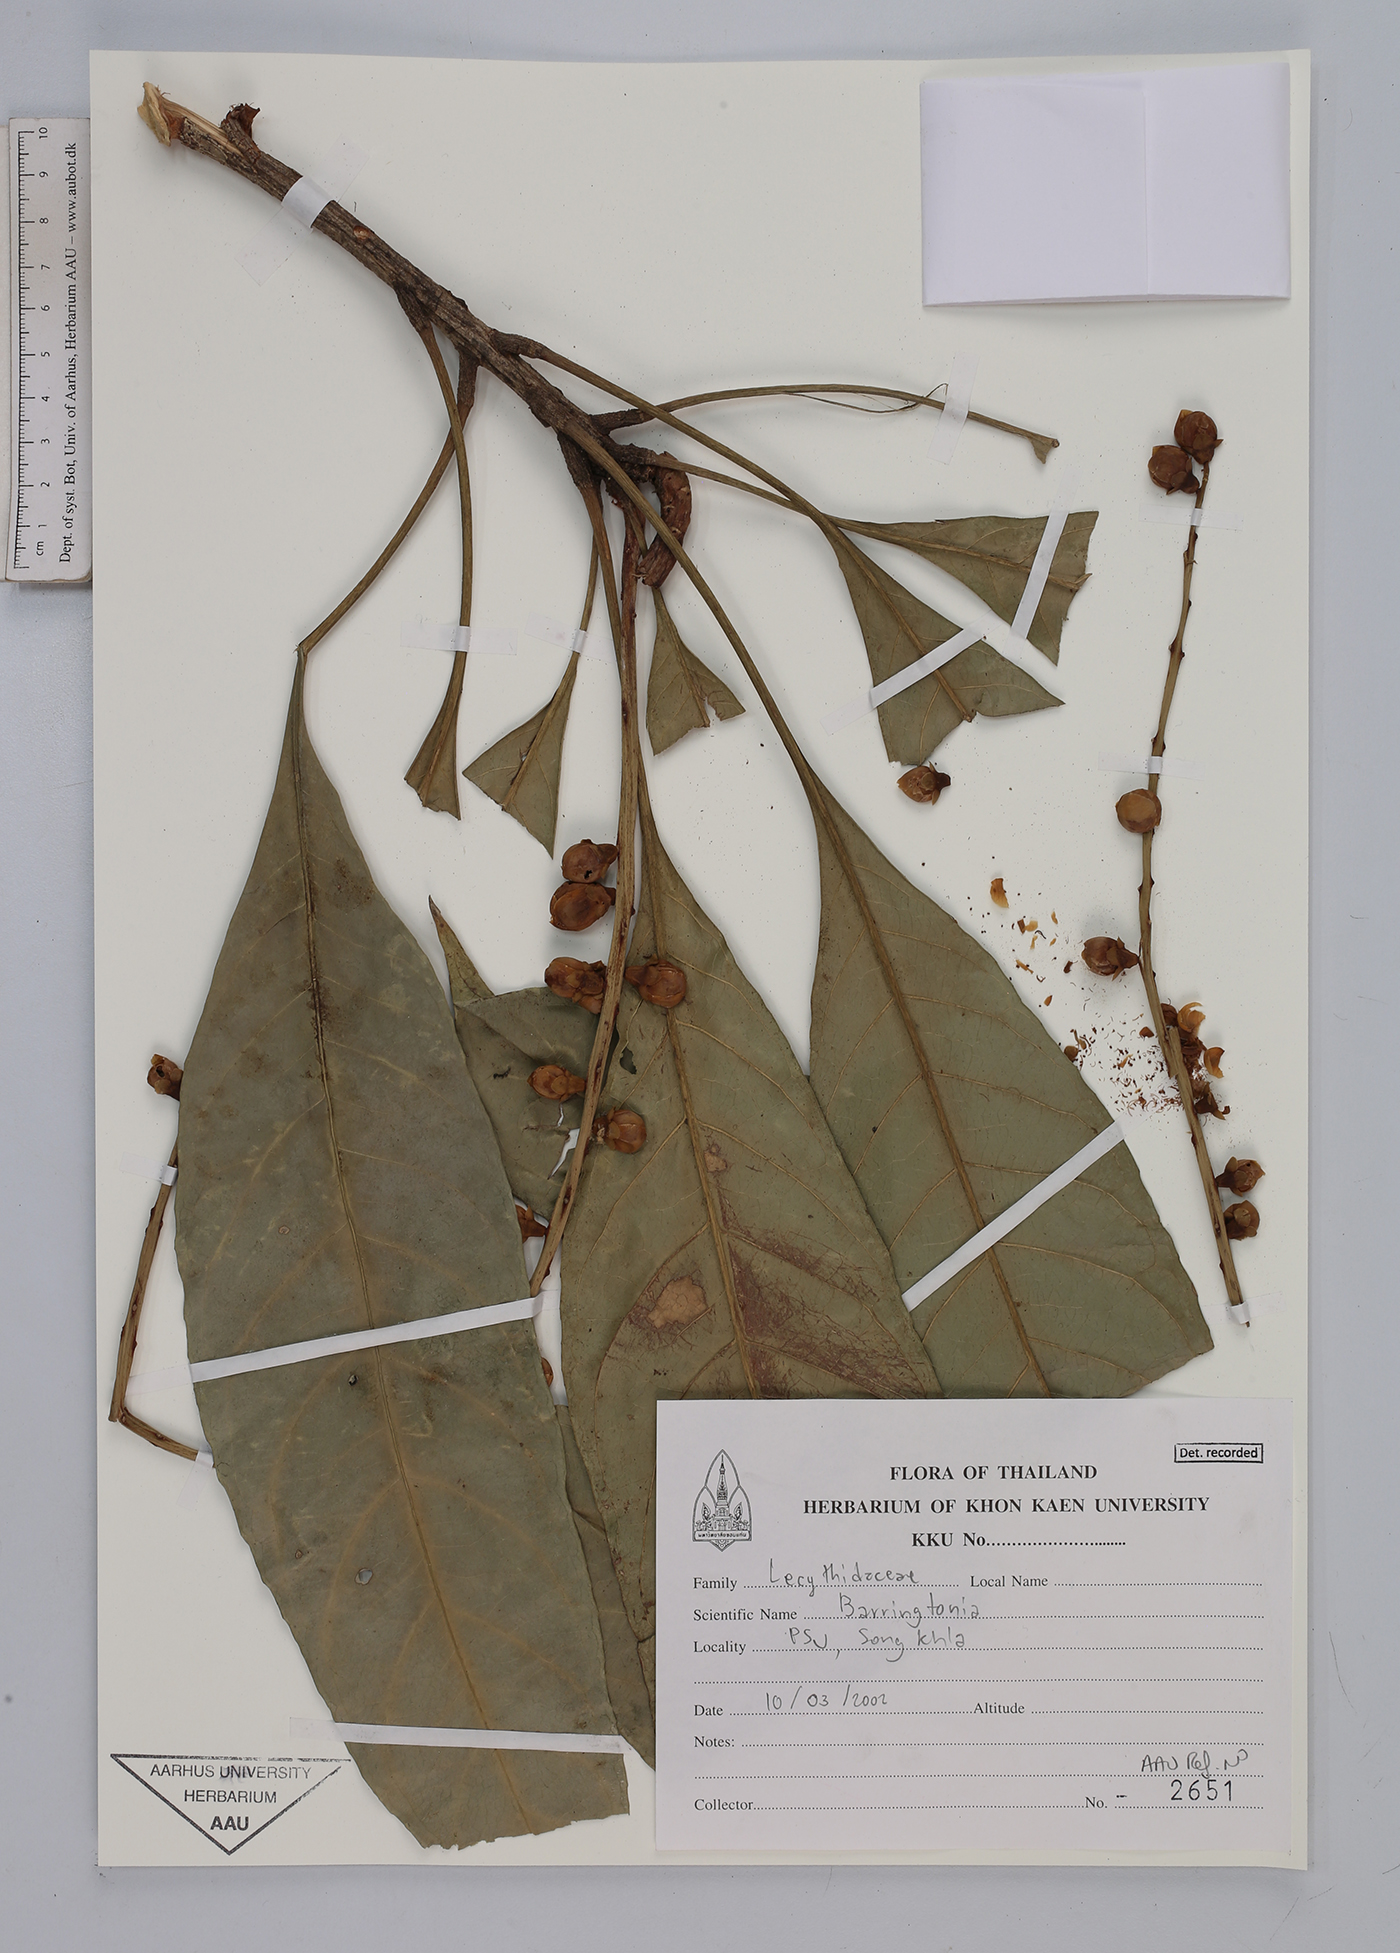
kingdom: Plantae
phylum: Tracheophyta
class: Magnoliopsida
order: Ericales
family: Lecythidaceae
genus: Barringtonia
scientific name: Barringtonia
